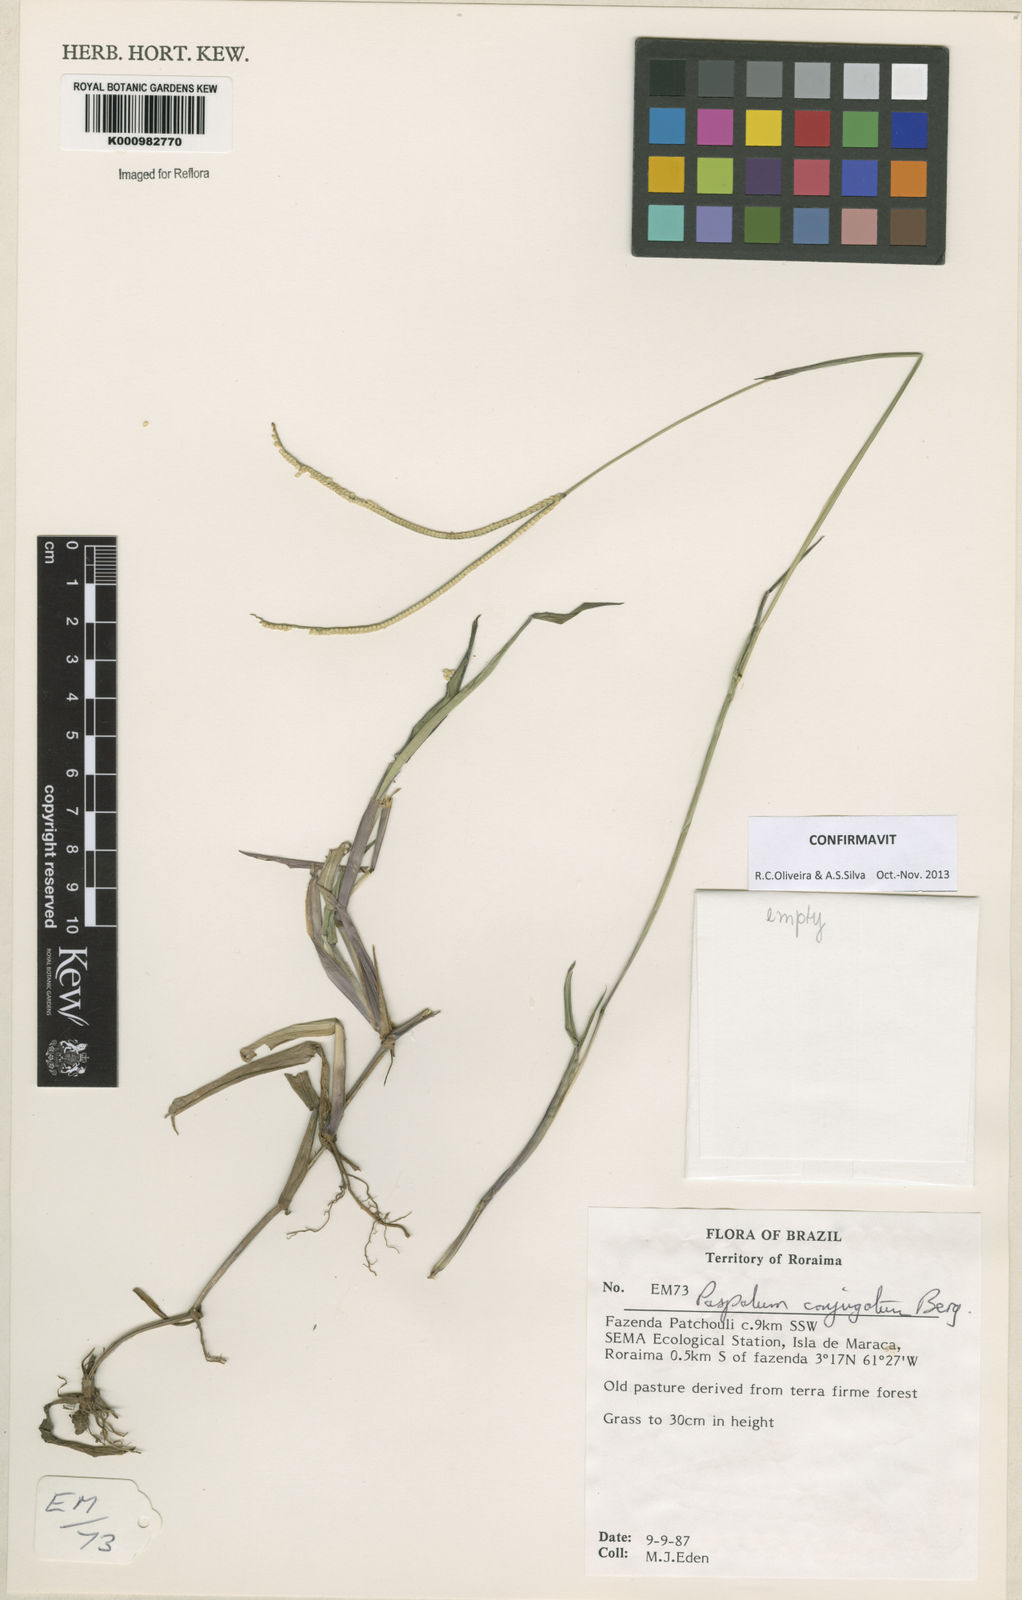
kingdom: Plantae
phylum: Tracheophyta
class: Liliopsida
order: Poales
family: Poaceae
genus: Paspalum
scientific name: Paspalum conjugatum
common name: Hilograss
